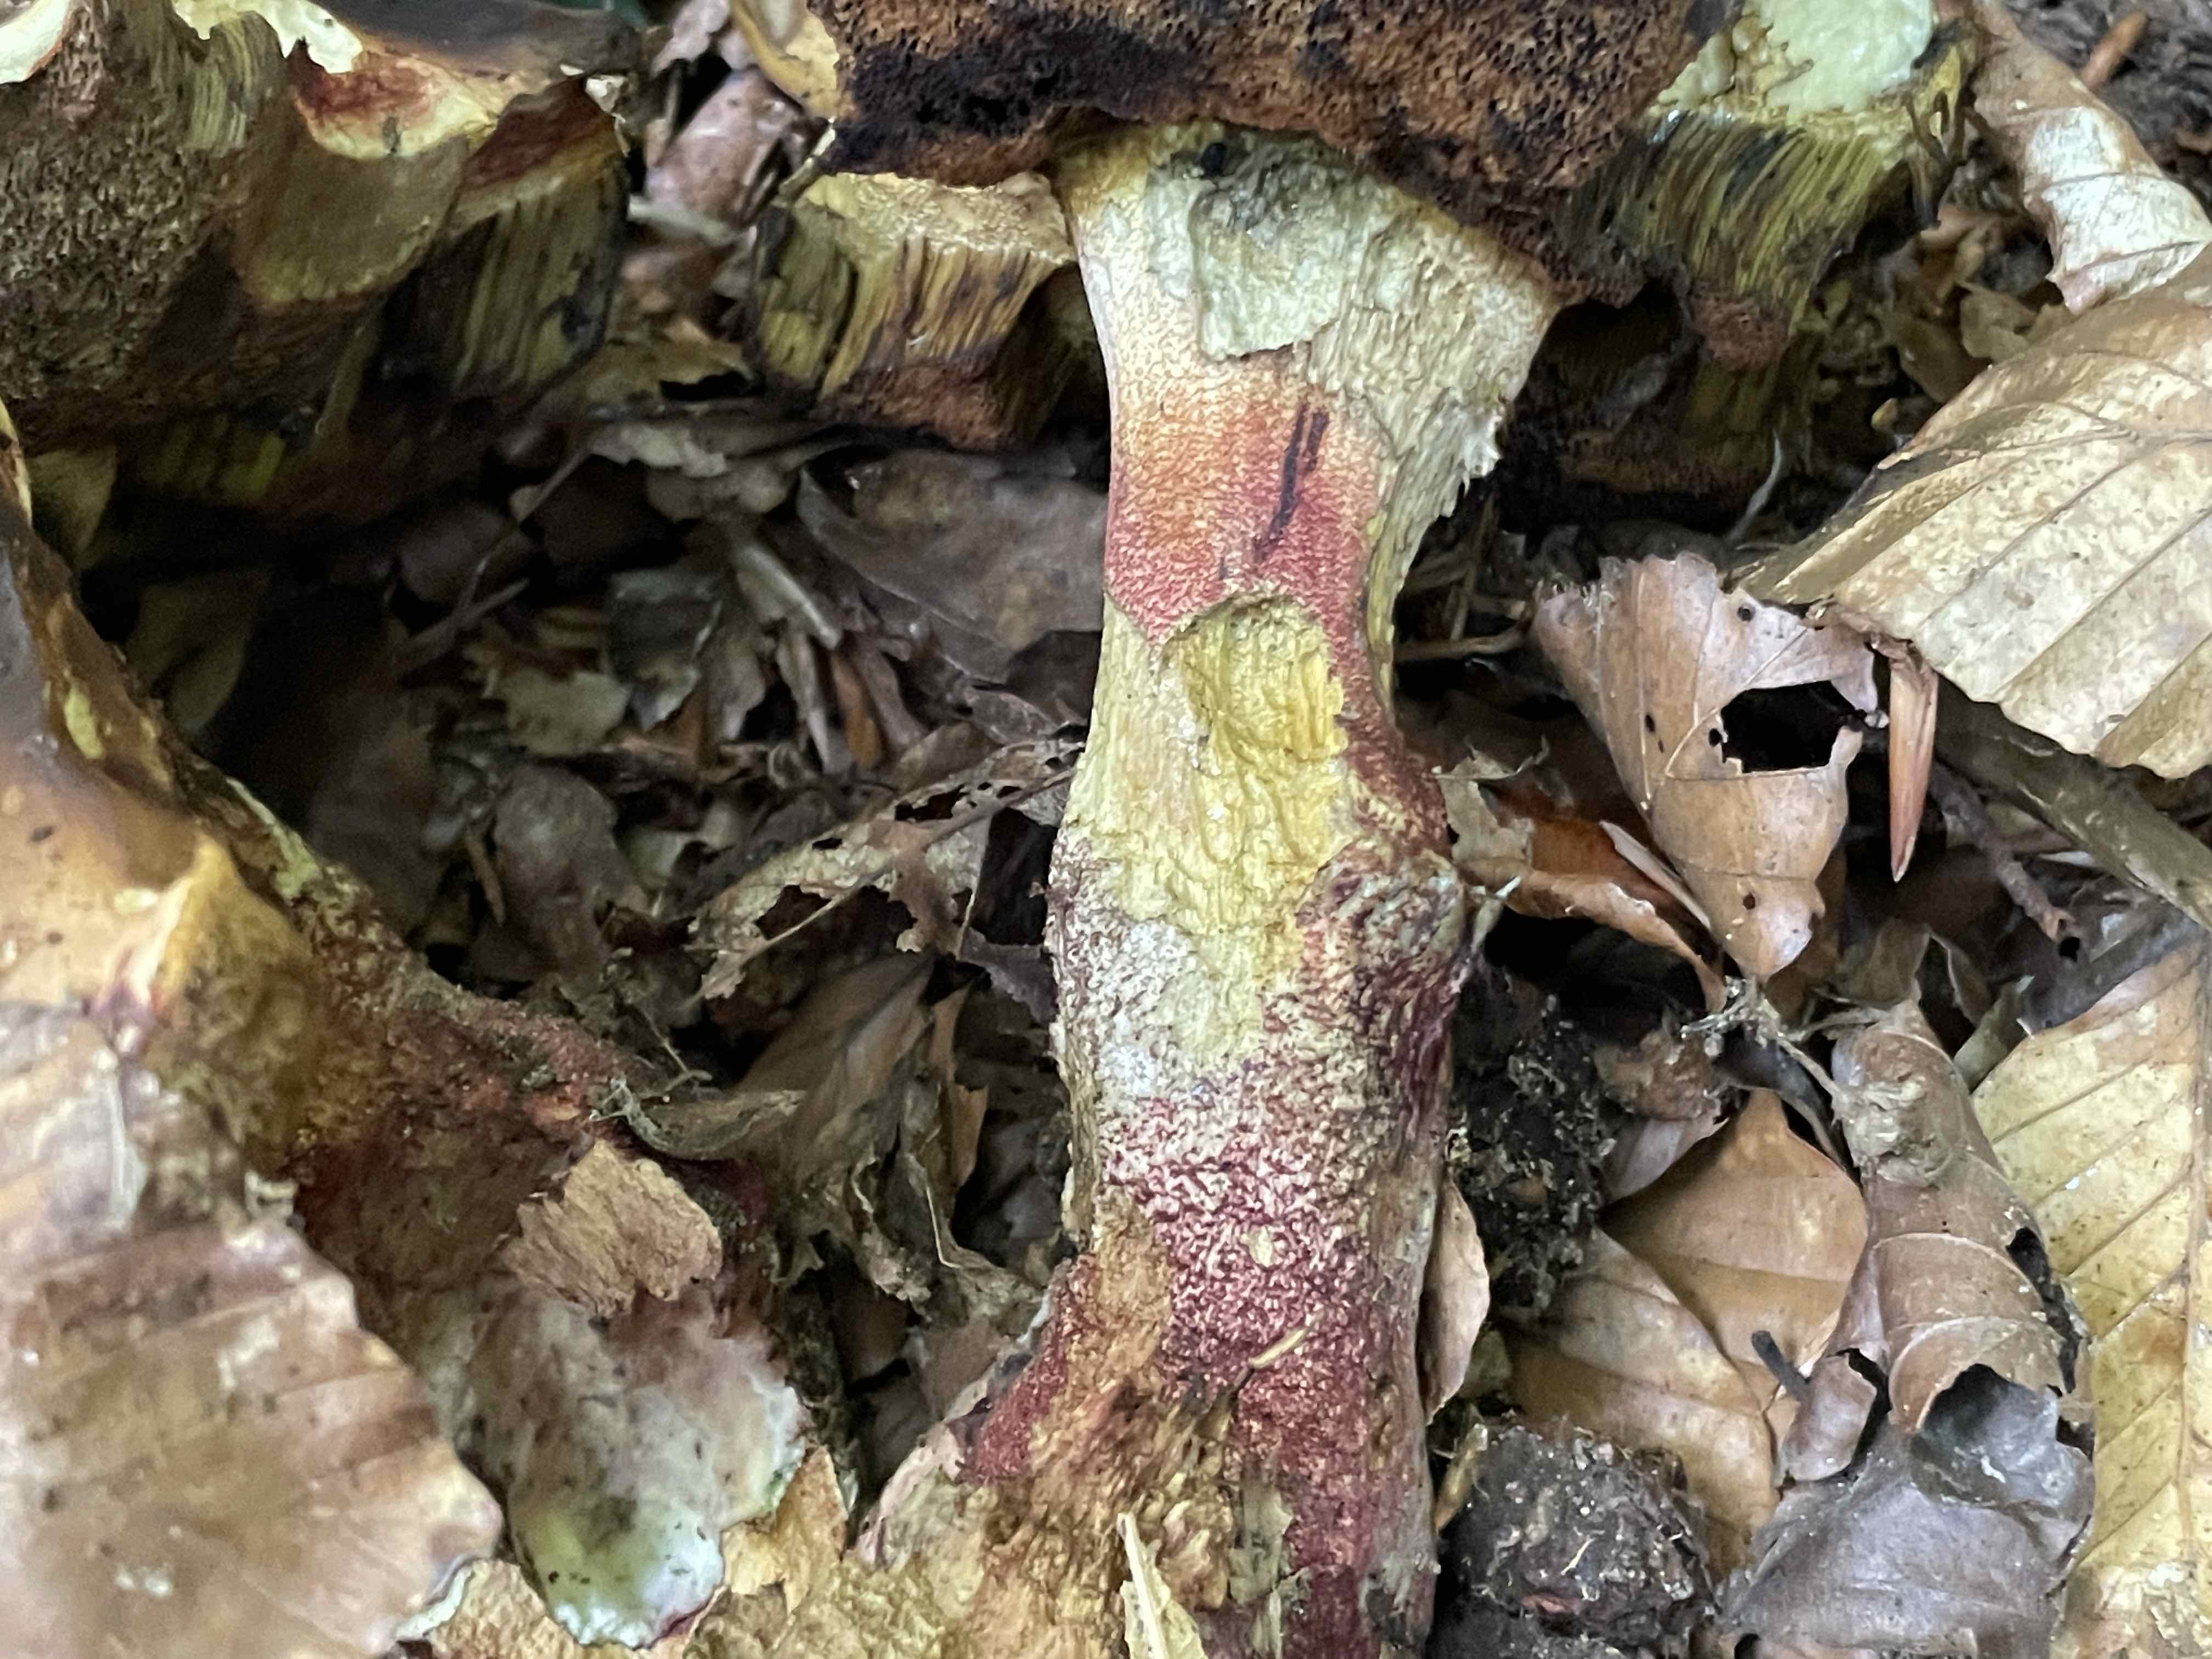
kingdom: Fungi
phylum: Basidiomycota
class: Agaricomycetes
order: Boletales
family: Boletaceae
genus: Neoboletus
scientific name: Neoboletus erythropus
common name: punktstokket indigorørhat
